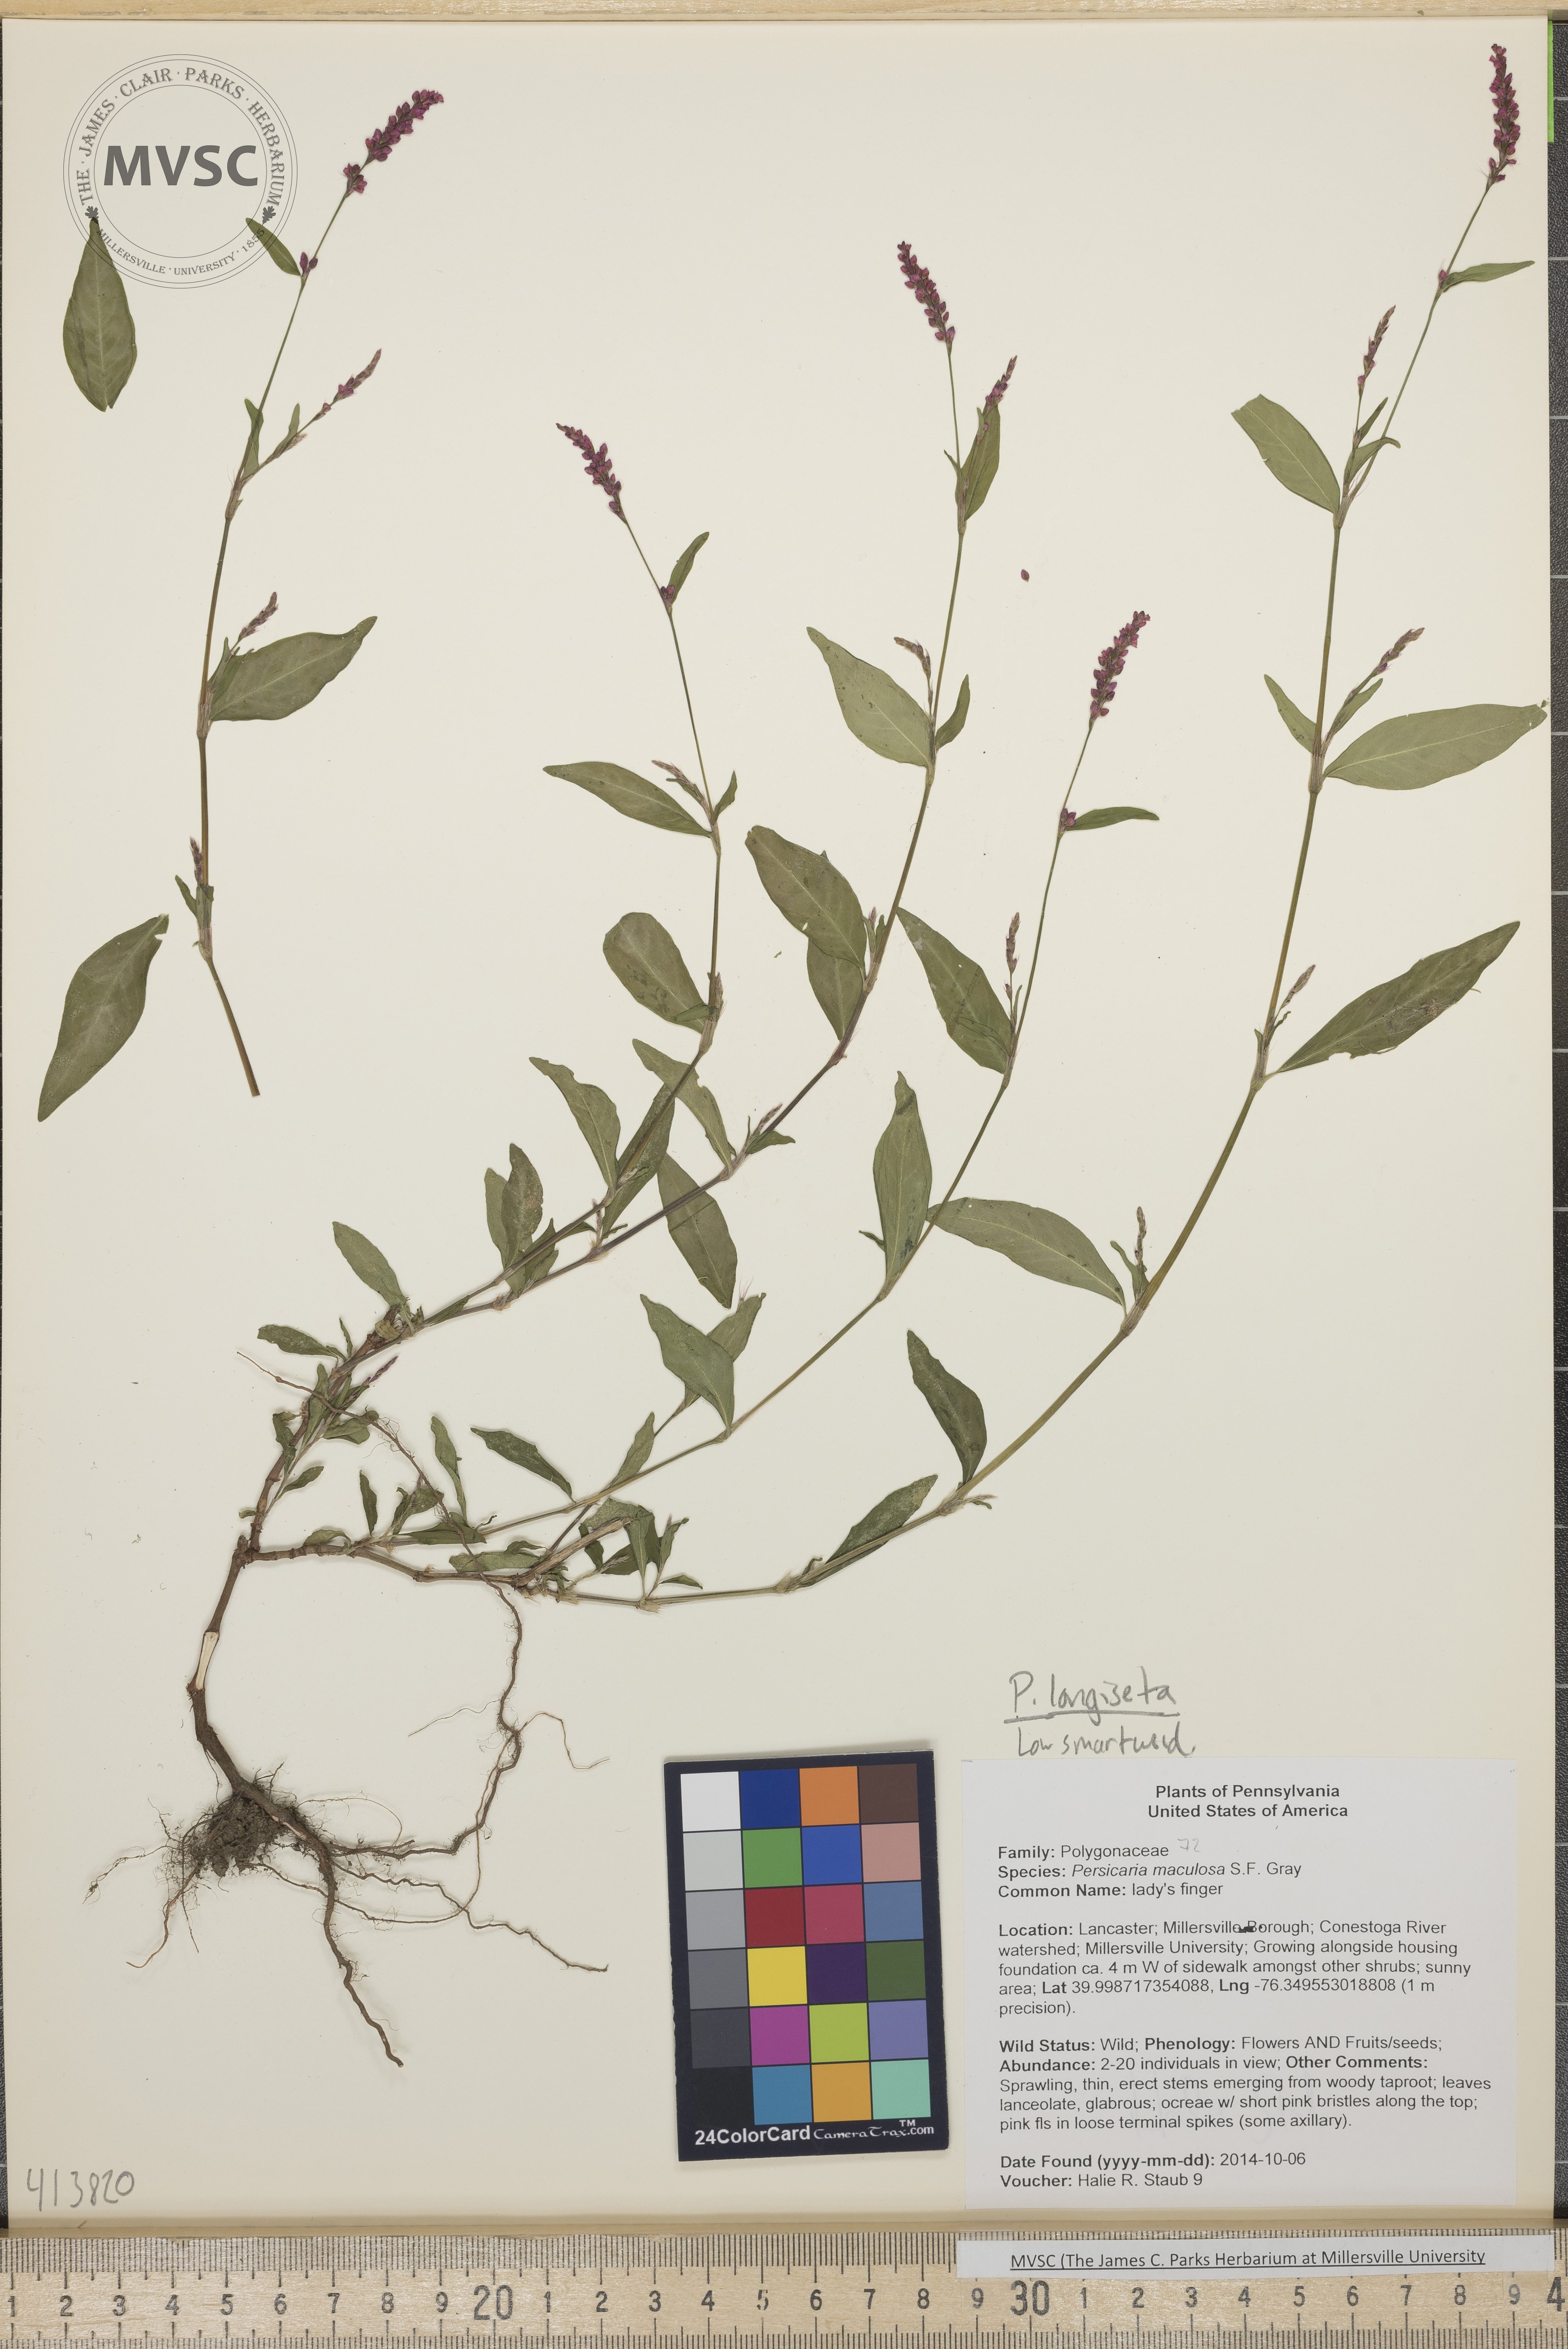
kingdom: Plantae
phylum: Tracheophyta
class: Magnoliopsida
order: Caryophyllales
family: Polygonaceae
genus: Persicaria
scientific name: Persicaria longiseta
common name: Low smartweed
